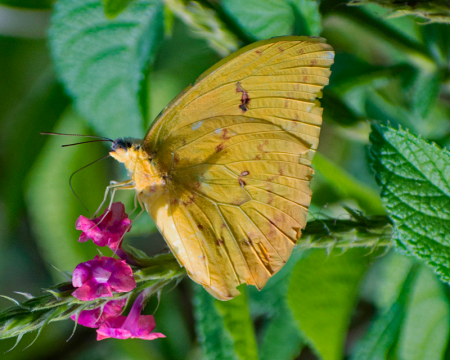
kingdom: Animalia
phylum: Arthropoda
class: Insecta
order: Lepidoptera
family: Pieridae
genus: Phoebis
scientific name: Phoebis philea
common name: Orange-barred Sulphur
